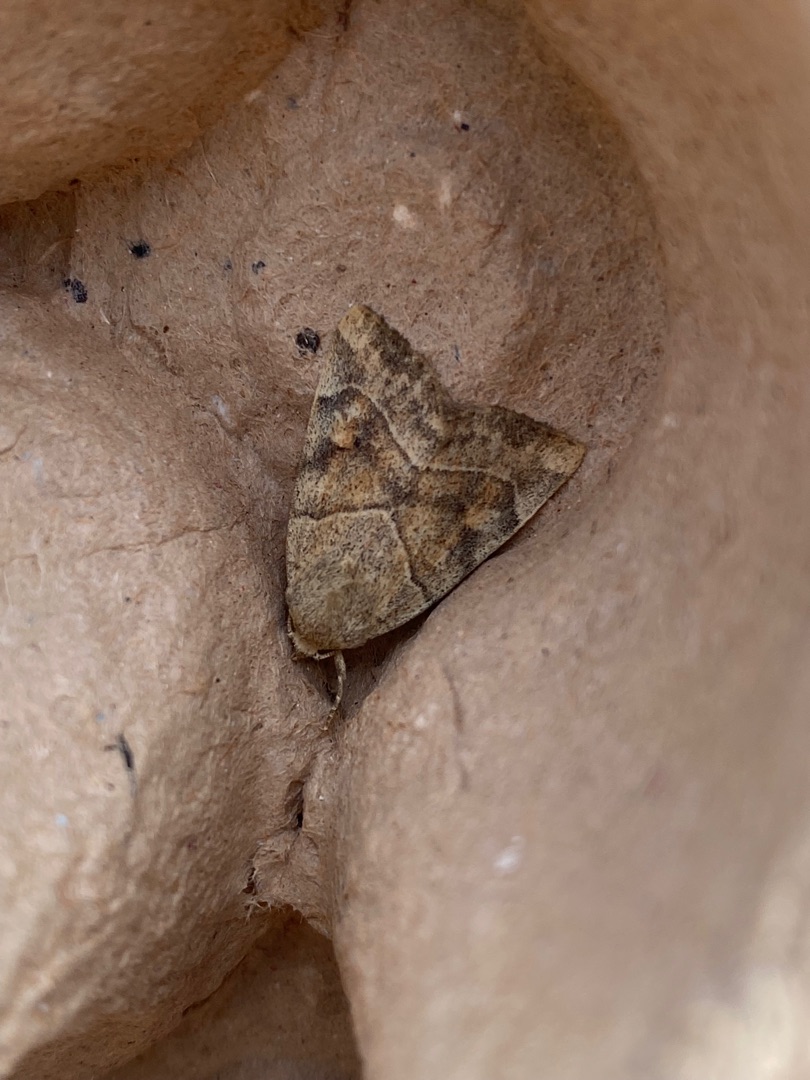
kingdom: Animalia
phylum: Arthropoda
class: Insecta
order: Lepidoptera
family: Noctuidae
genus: Cosmia
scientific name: Cosmia trapezina
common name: Trapezugle
